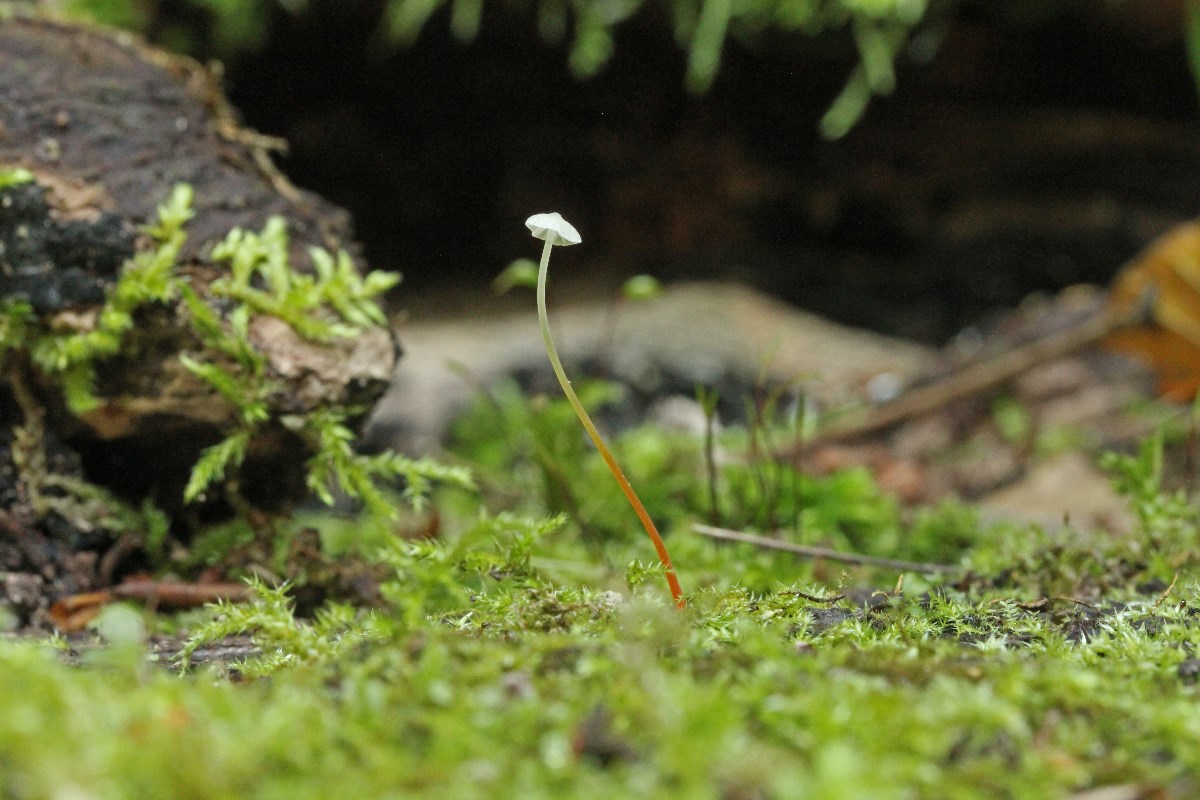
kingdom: Fungi
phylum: Basidiomycota
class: Agaricomycetes
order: Agaricales
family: Mycenaceae
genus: Mycena
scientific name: Mycena crocata
